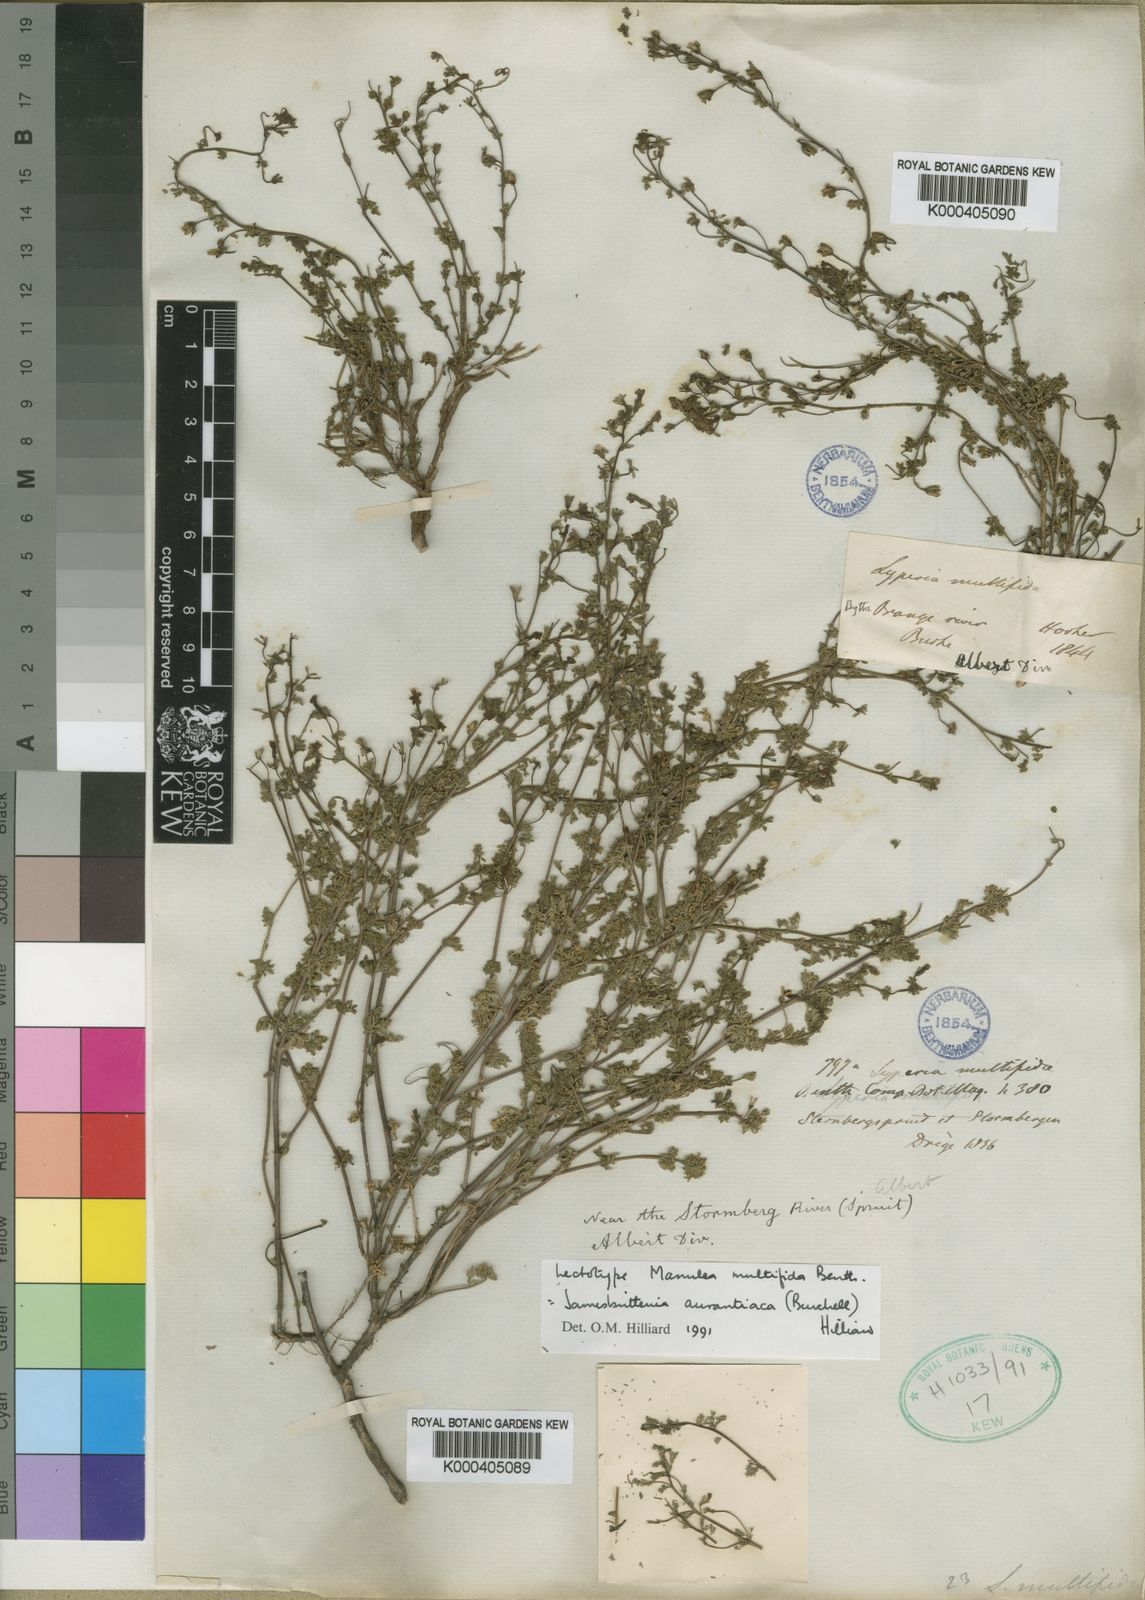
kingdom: Plantae
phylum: Tracheophyta
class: Magnoliopsida
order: Lamiales
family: Scrophulariaceae
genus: Jamesbrittenia
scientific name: Jamesbrittenia aurantiaca
